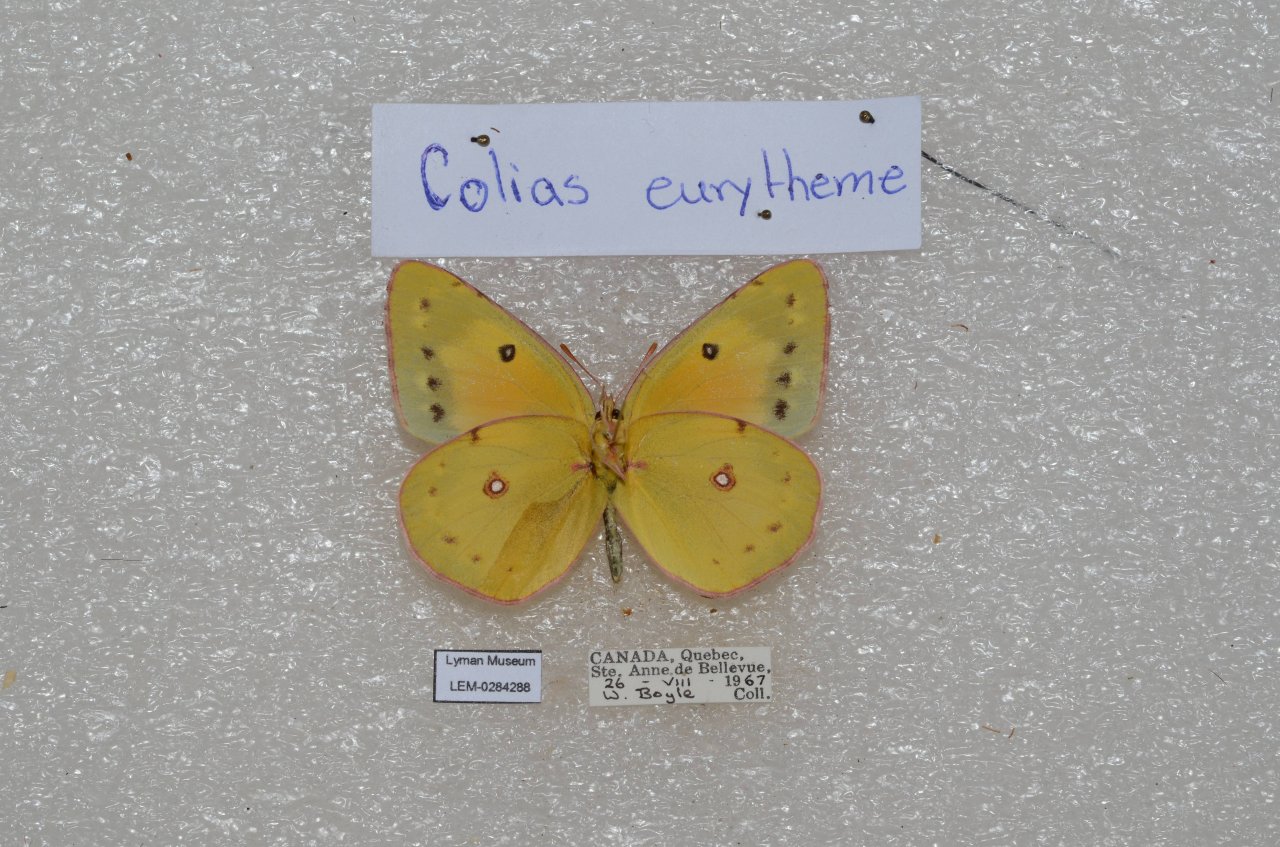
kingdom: Animalia
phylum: Arthropoda
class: Insecta
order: Lepidoptera
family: Pieridae
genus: Colias
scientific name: Colias eurytheme
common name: Orange Sulphur
